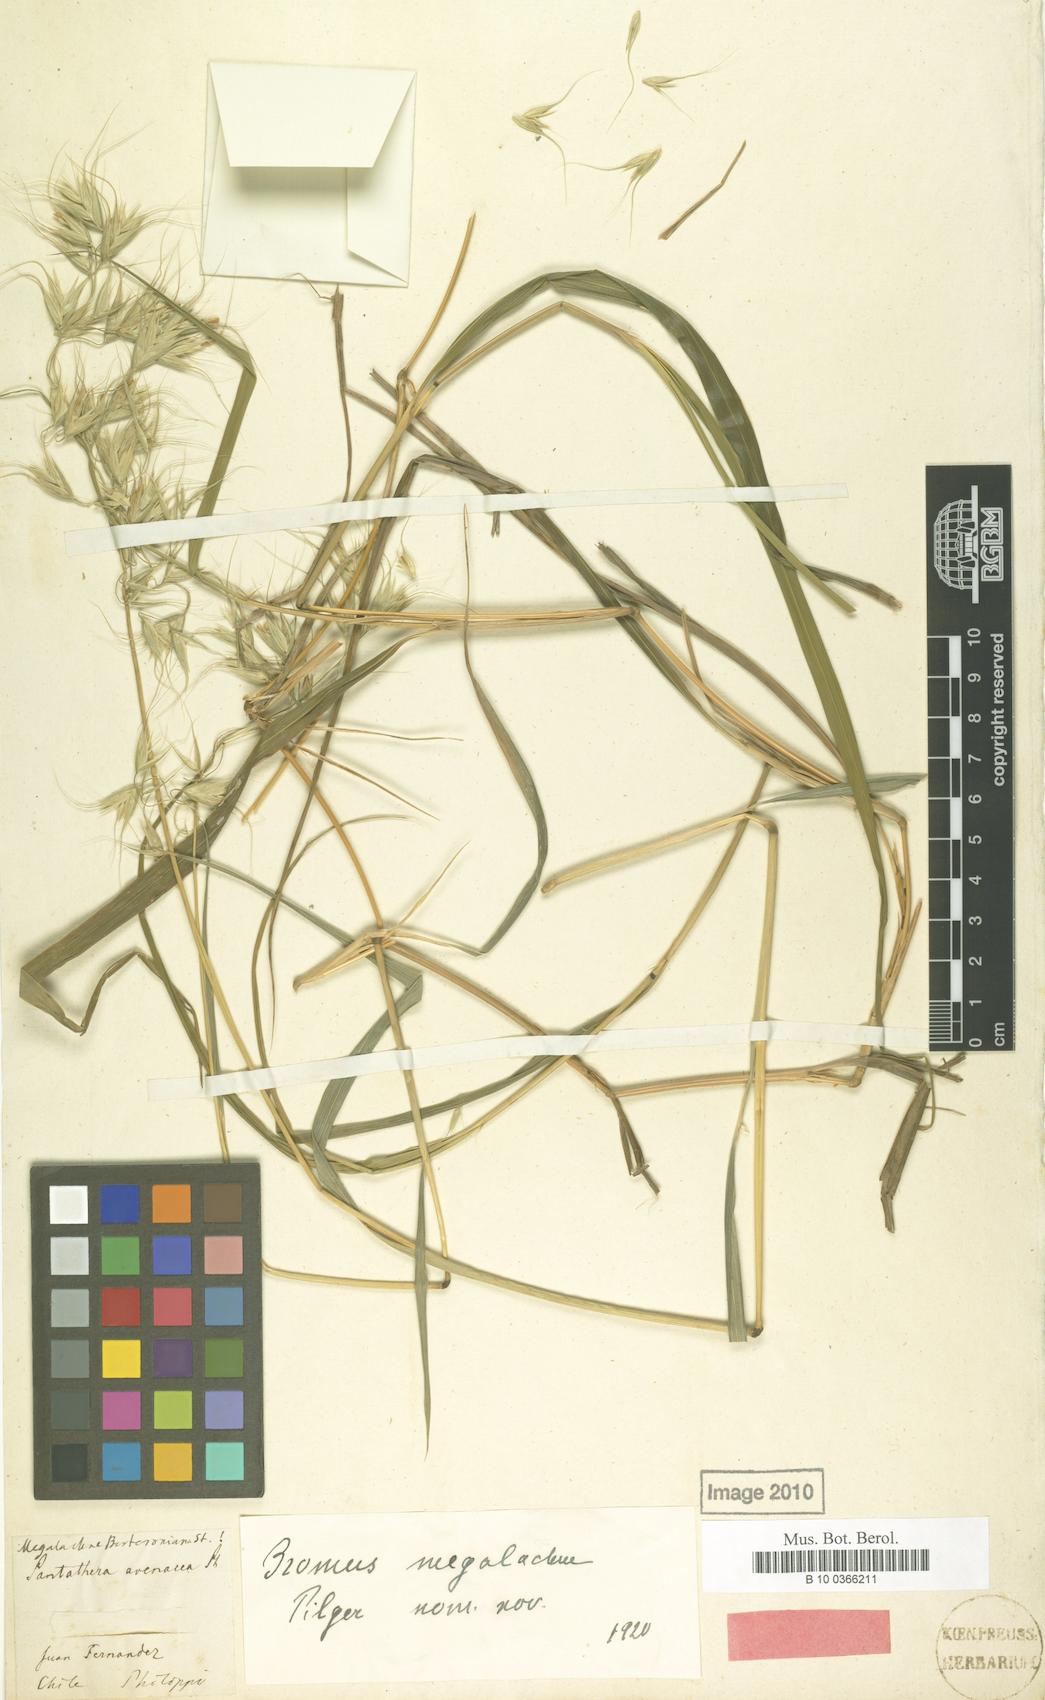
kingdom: Plantae
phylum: Tracheophyta
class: Liliopsida
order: Poales
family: Poaceae
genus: Megalachne
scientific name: Megalachne berteroniana
